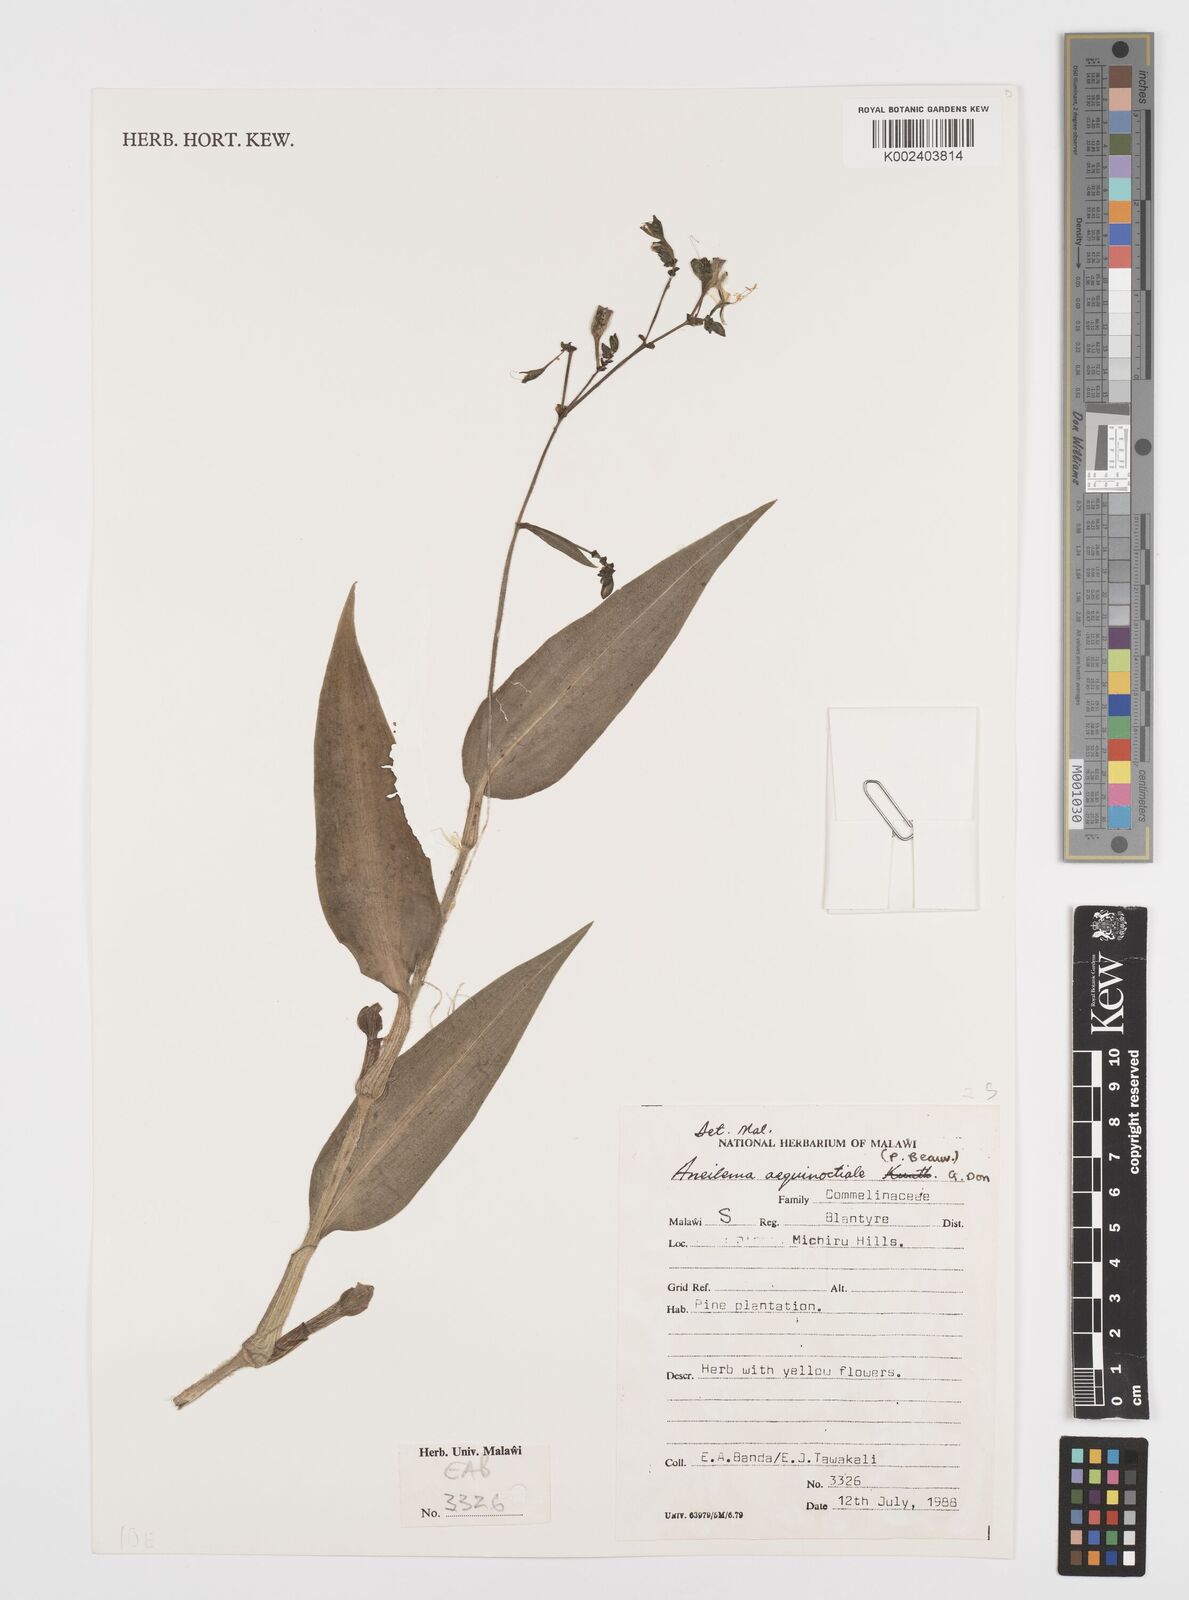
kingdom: Plantae
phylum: Tracheophyta
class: Liliopsida
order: Commelinales
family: Commelinaceae
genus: Aneilema
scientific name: Aneilema aequinoctiale
